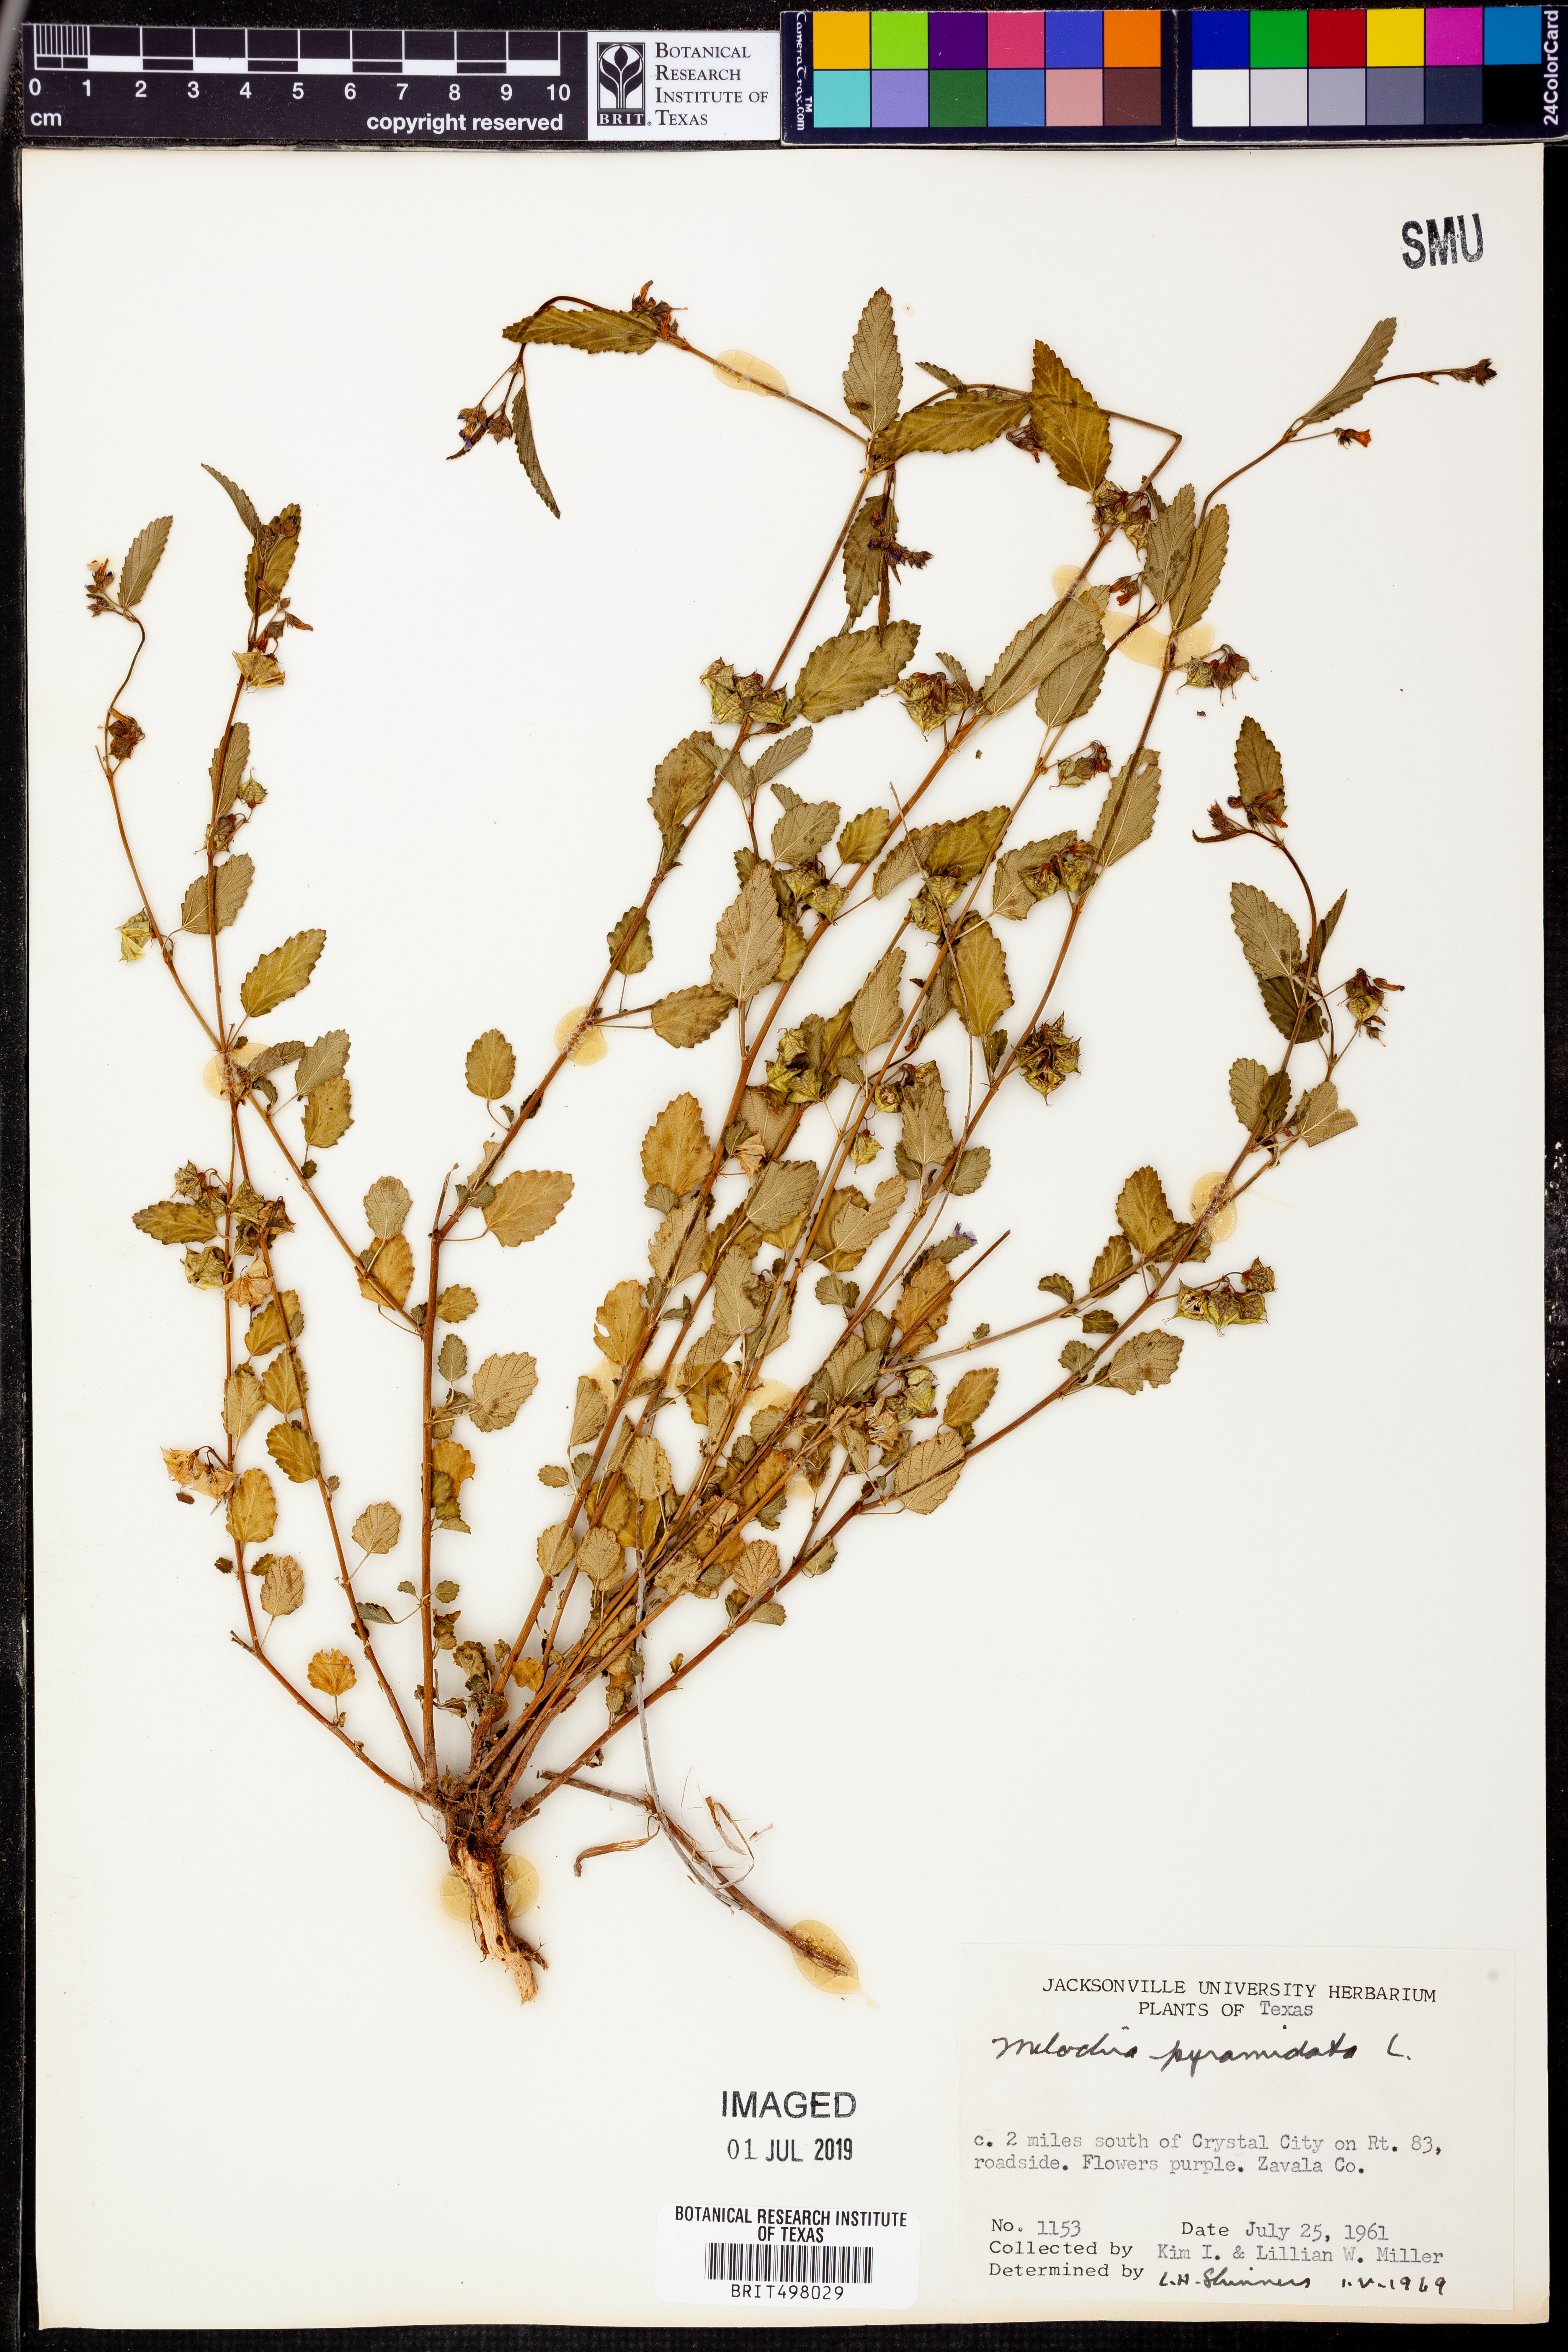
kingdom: Plantae
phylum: Tracheophyta
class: Magnoliopsida
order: Malvales
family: Malvaceae
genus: Melochia
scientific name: Melochia pyramidata
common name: Pyramidflower
